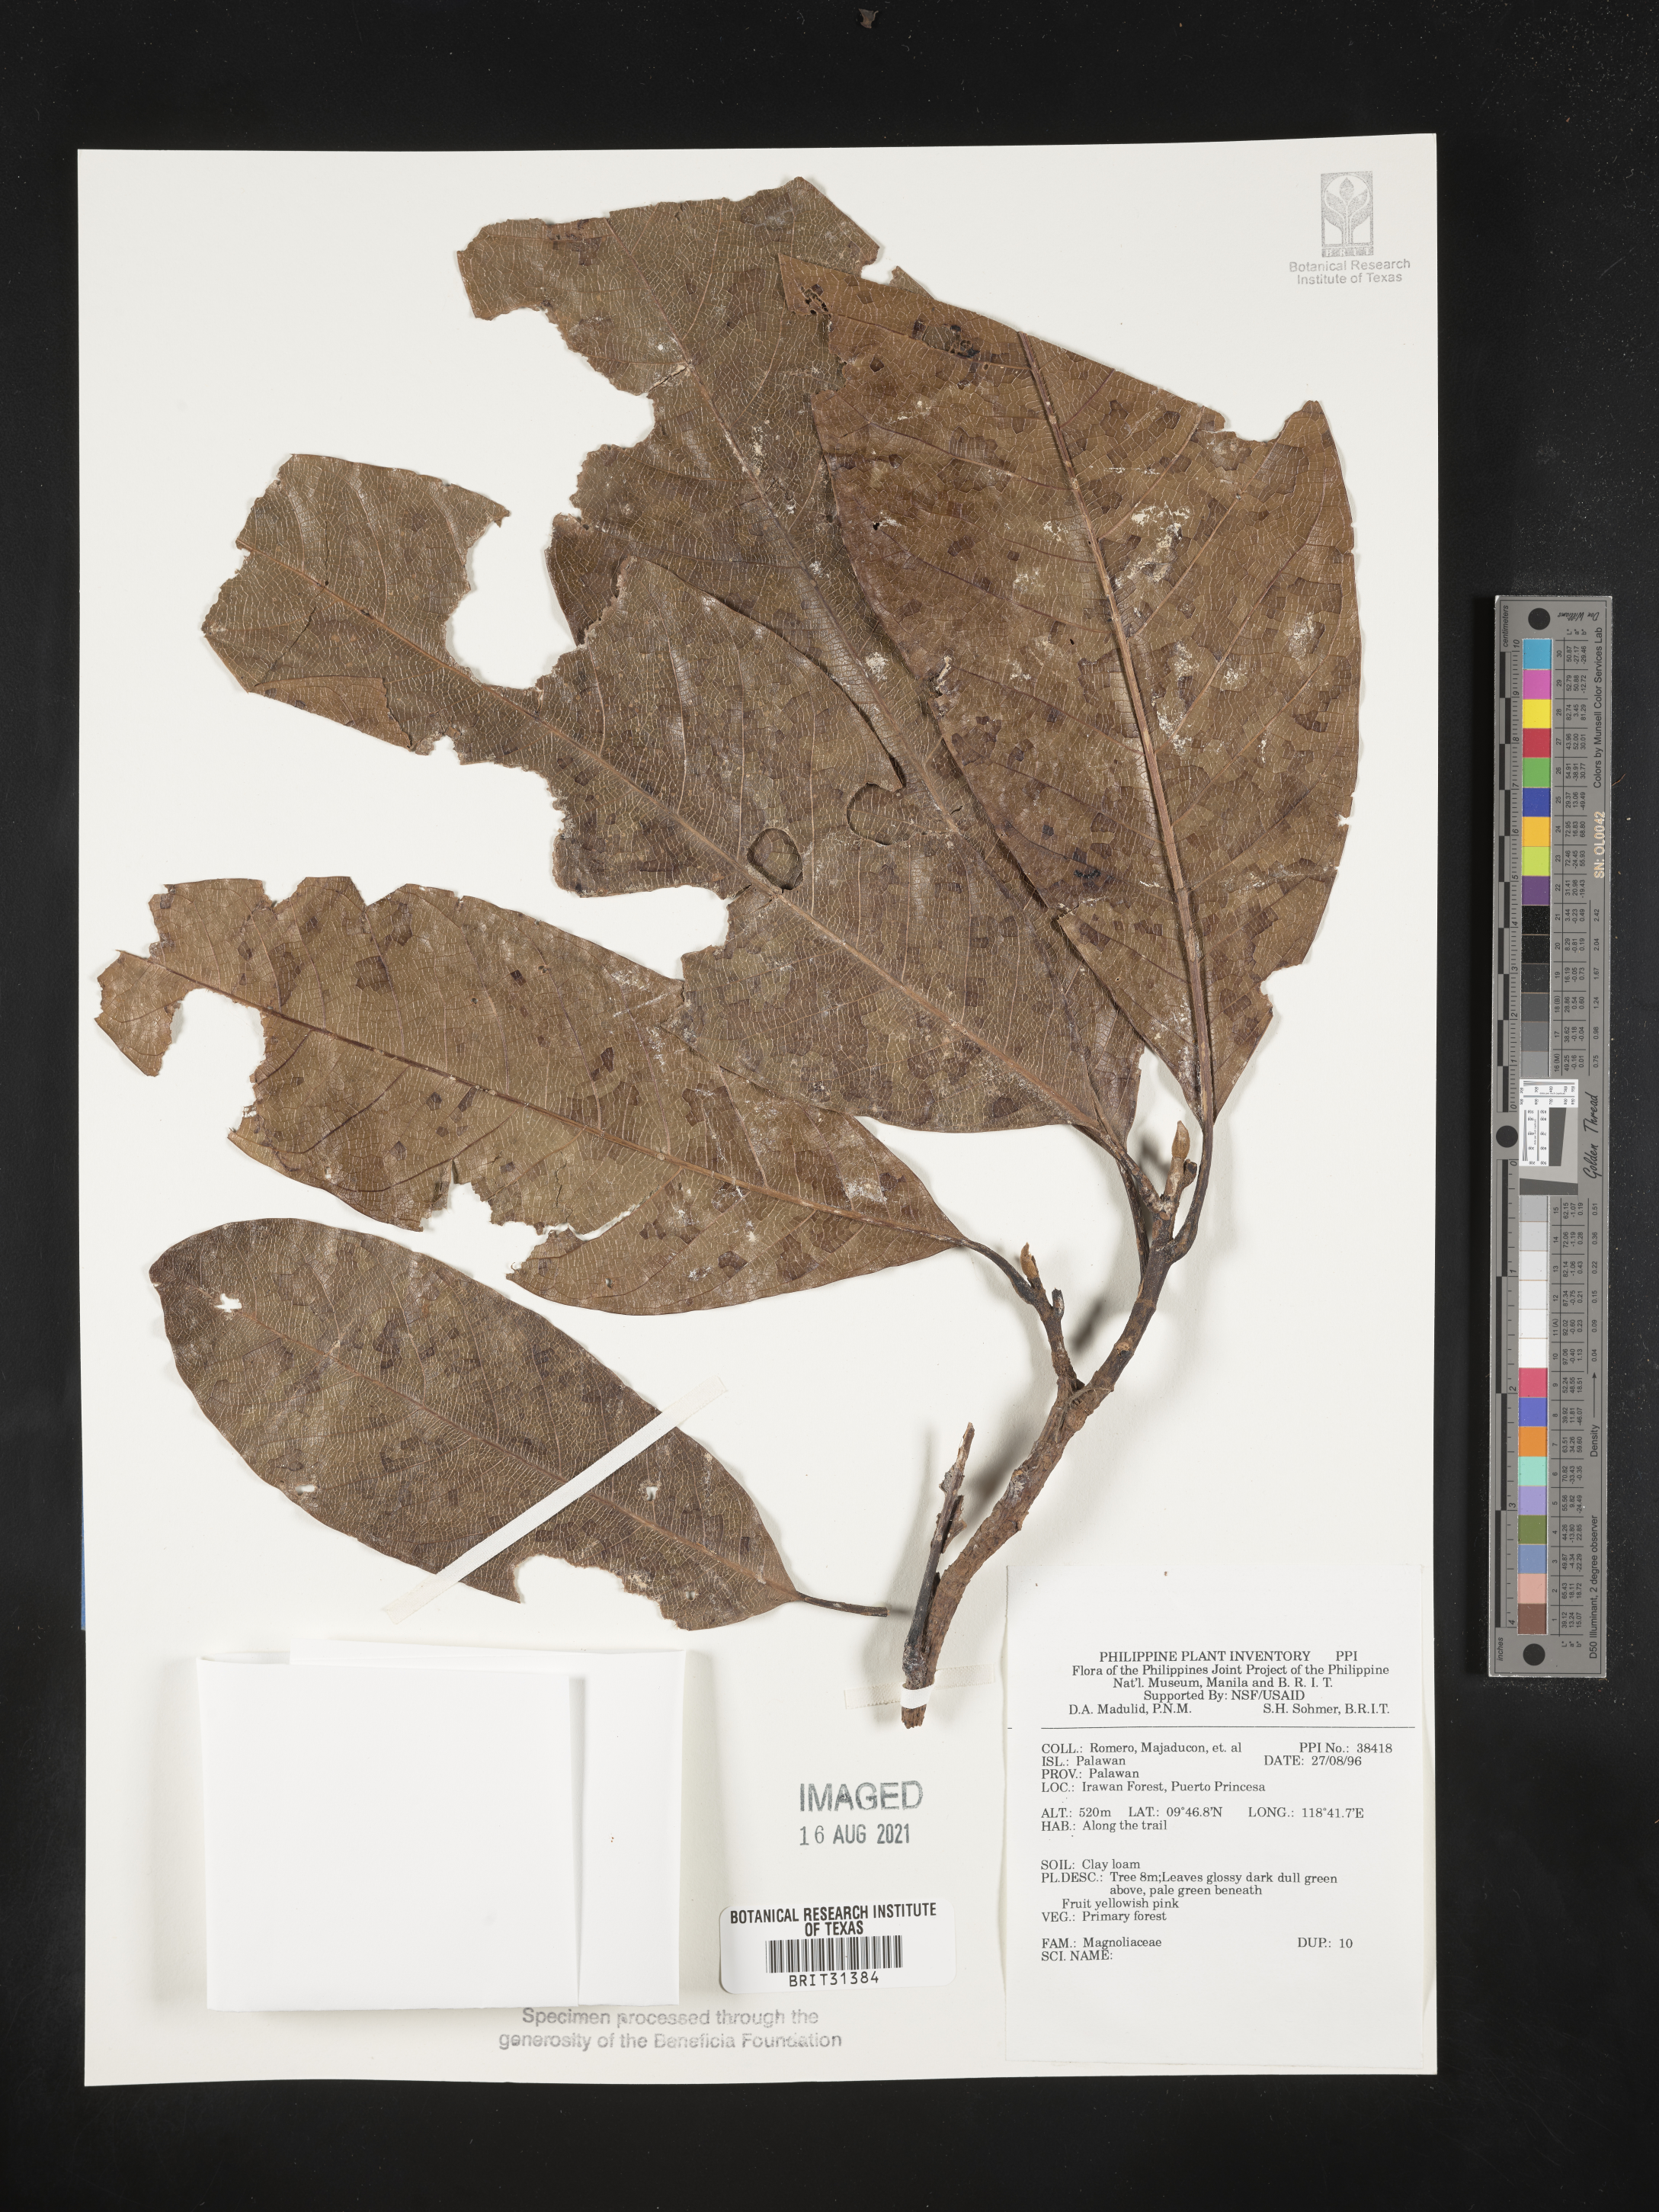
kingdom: Plantae
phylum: Tracheophyta
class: Magnoliopsida
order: Magnoliales
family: Magnoliaceae
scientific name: Magnoliaceae
